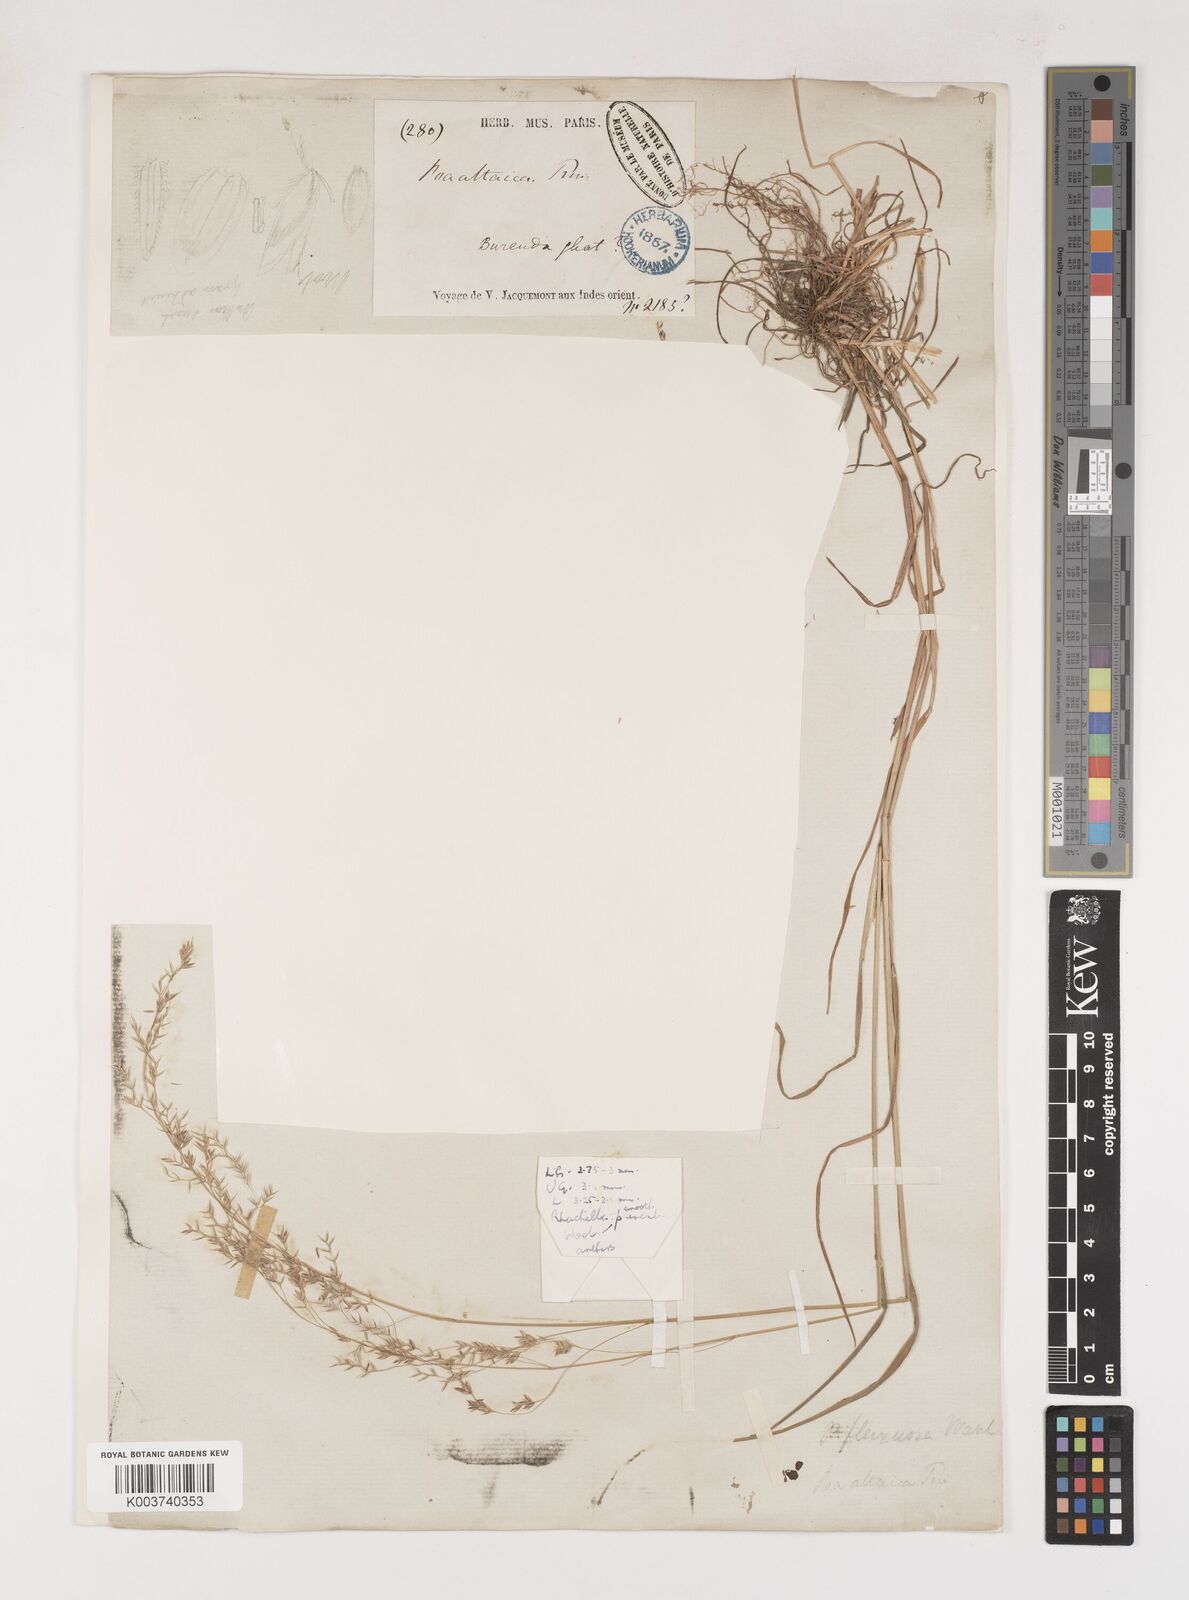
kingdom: Plantae
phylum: Tracheophyta
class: Liliopsida
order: Poales
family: Poaceae
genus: Poa
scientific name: Poa stapfiana
